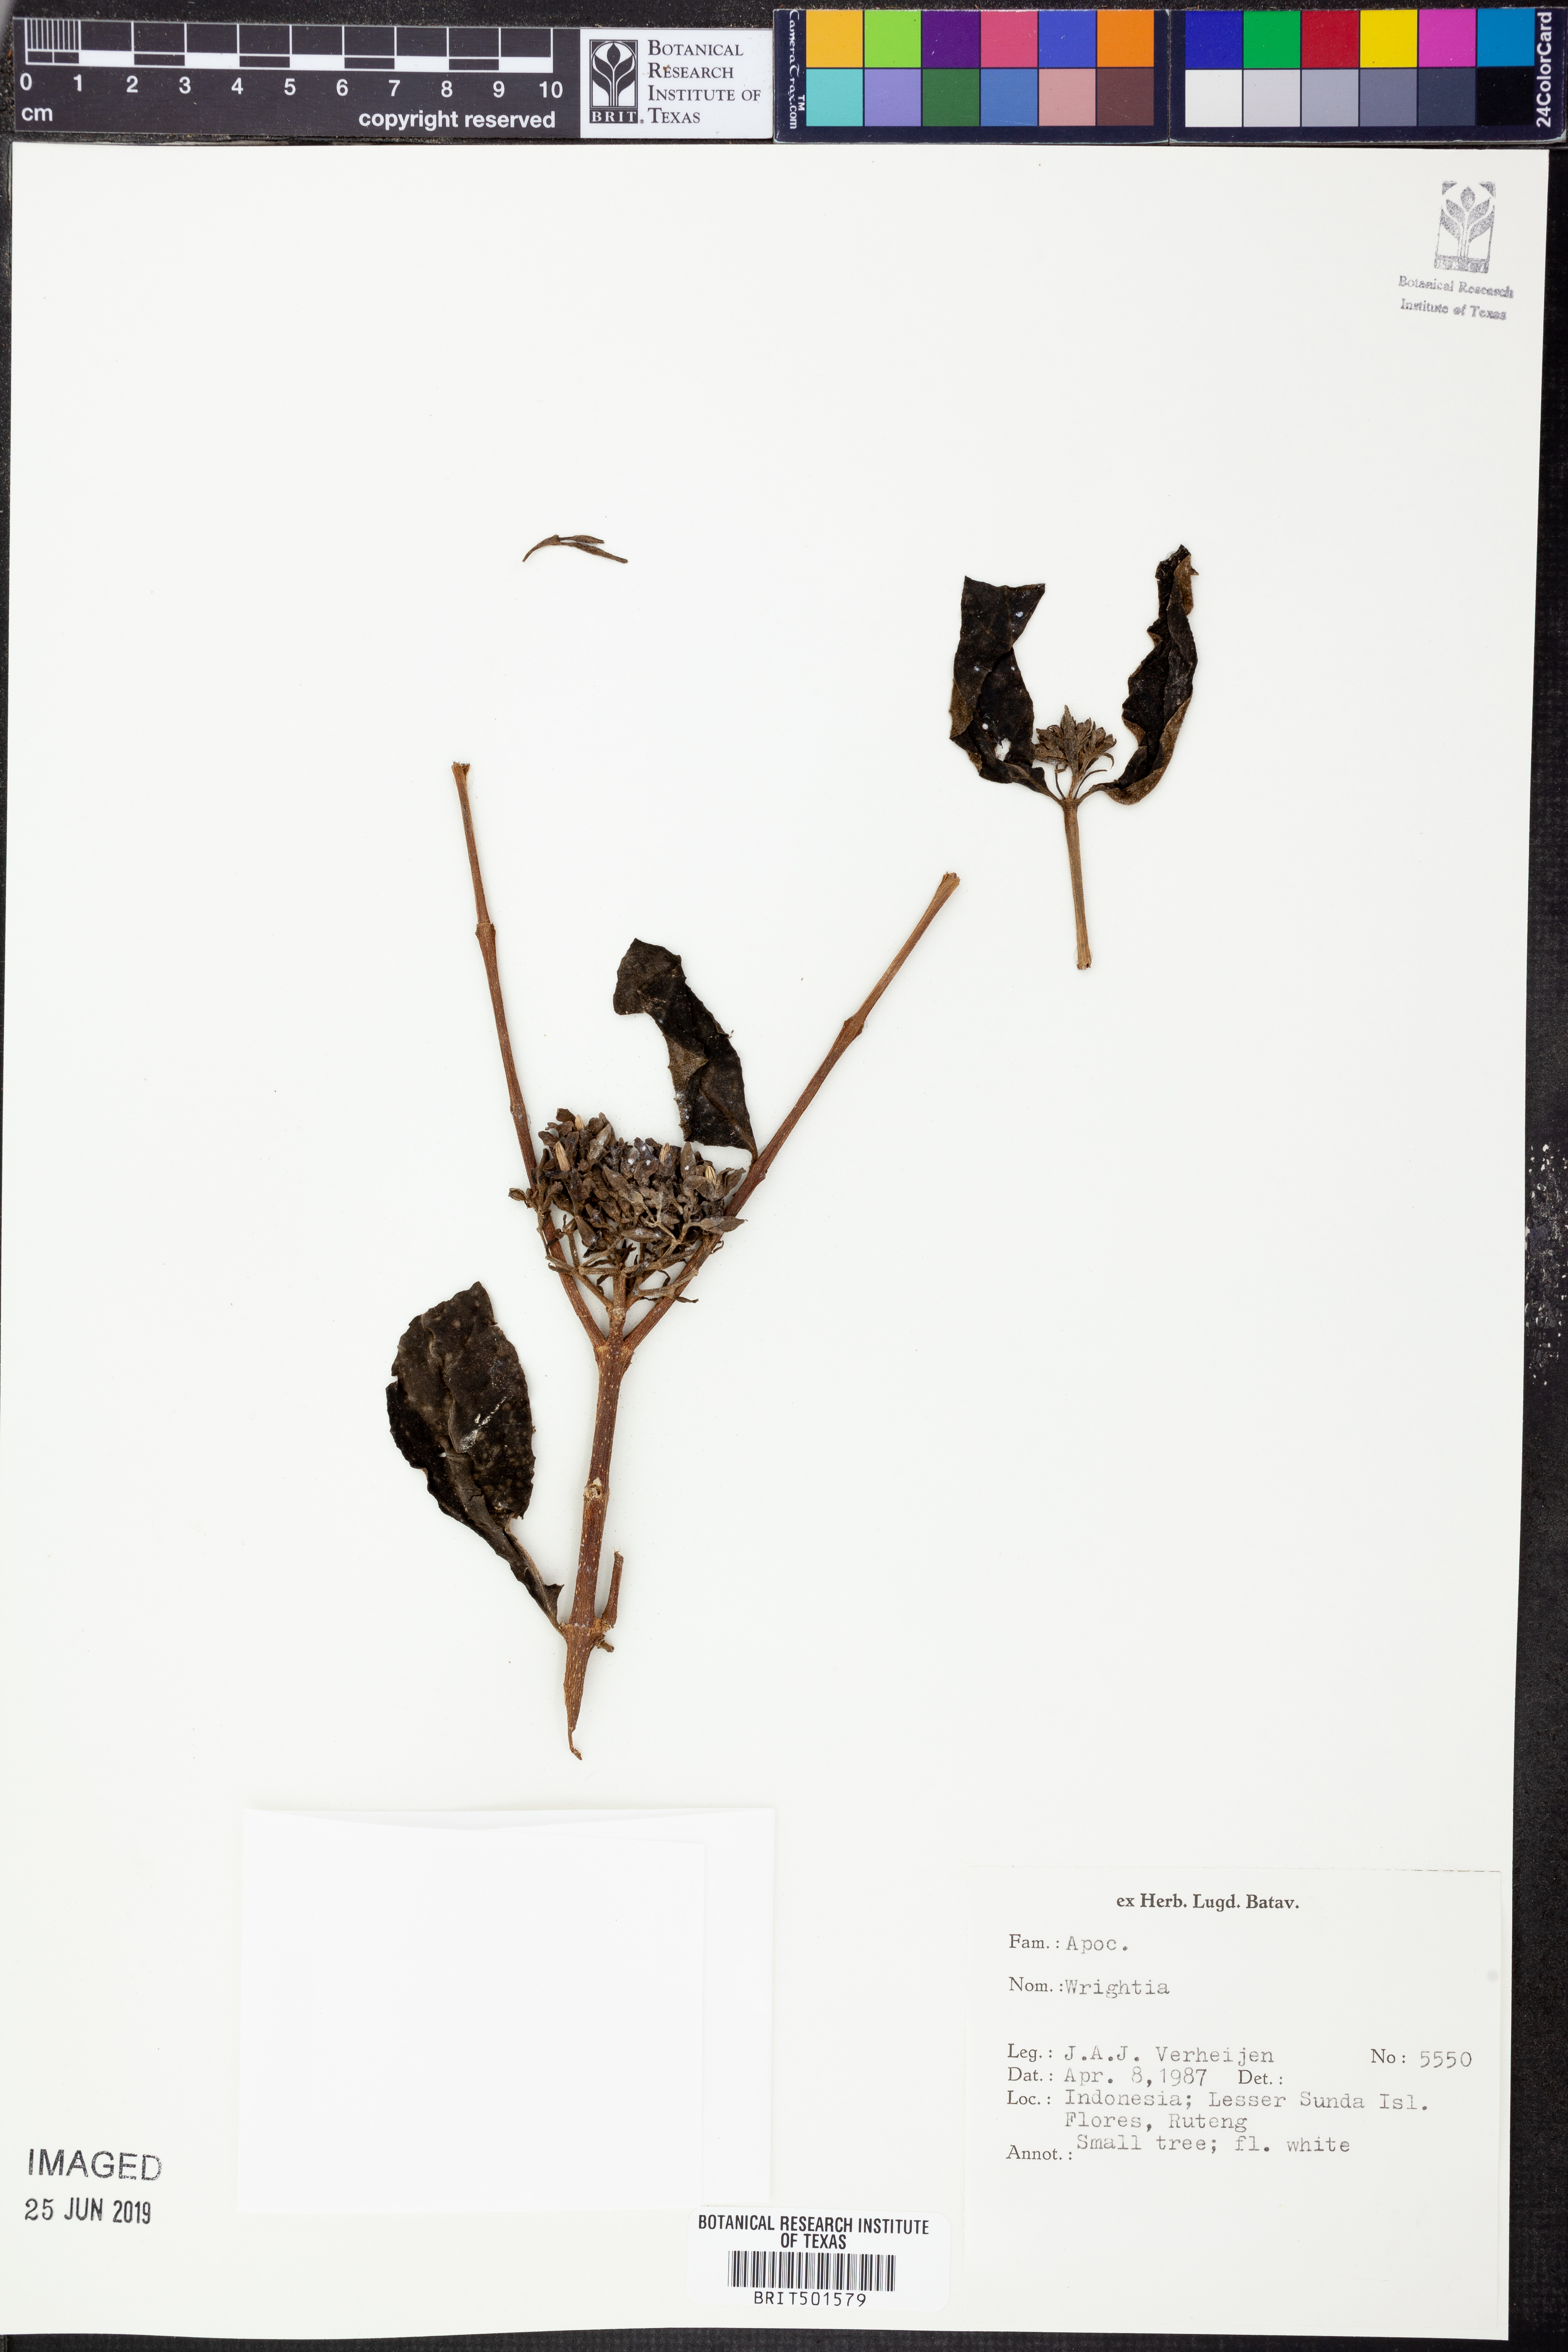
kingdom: Plantae
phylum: Tracheophyta
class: Magnoliopsida
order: Gentianales
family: Apocynaceae
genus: Wrightia
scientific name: Wrightia
